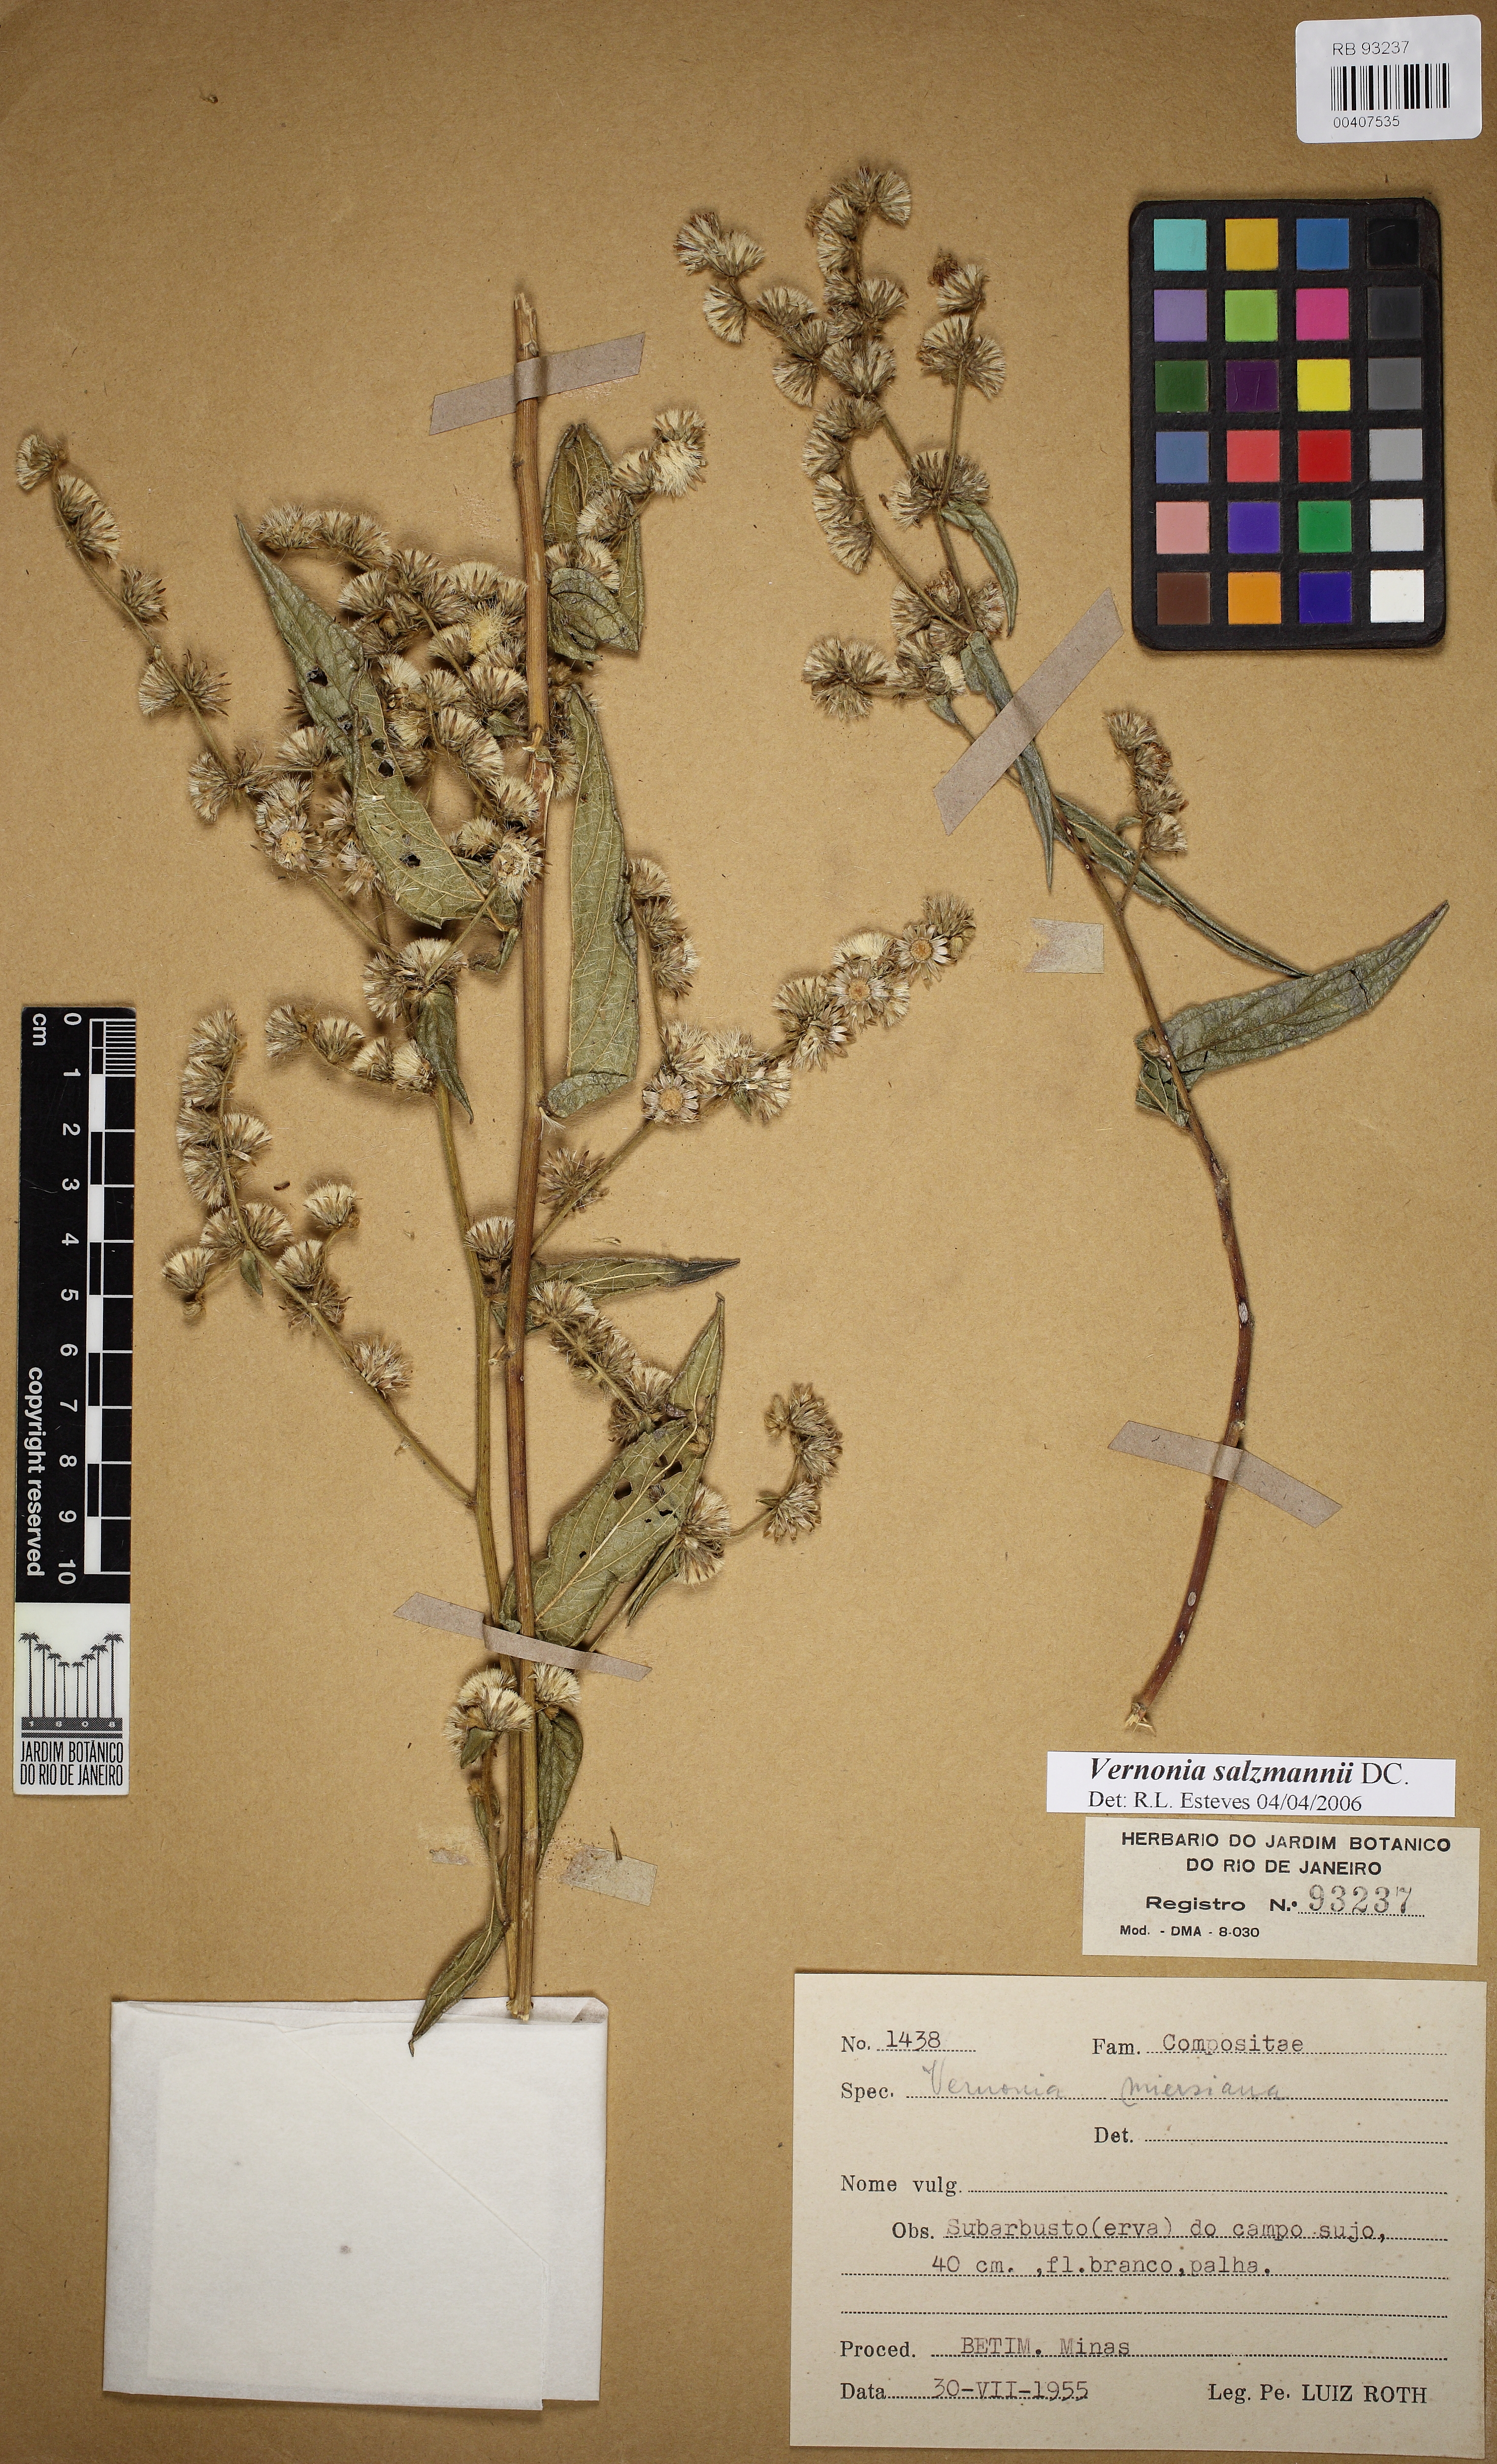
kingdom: Plantae
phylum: Tracheophyta
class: Magnoliopsida
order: Asterales
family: Asteraceae
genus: Lepidaploa
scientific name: Lepidaploa salzmannii
